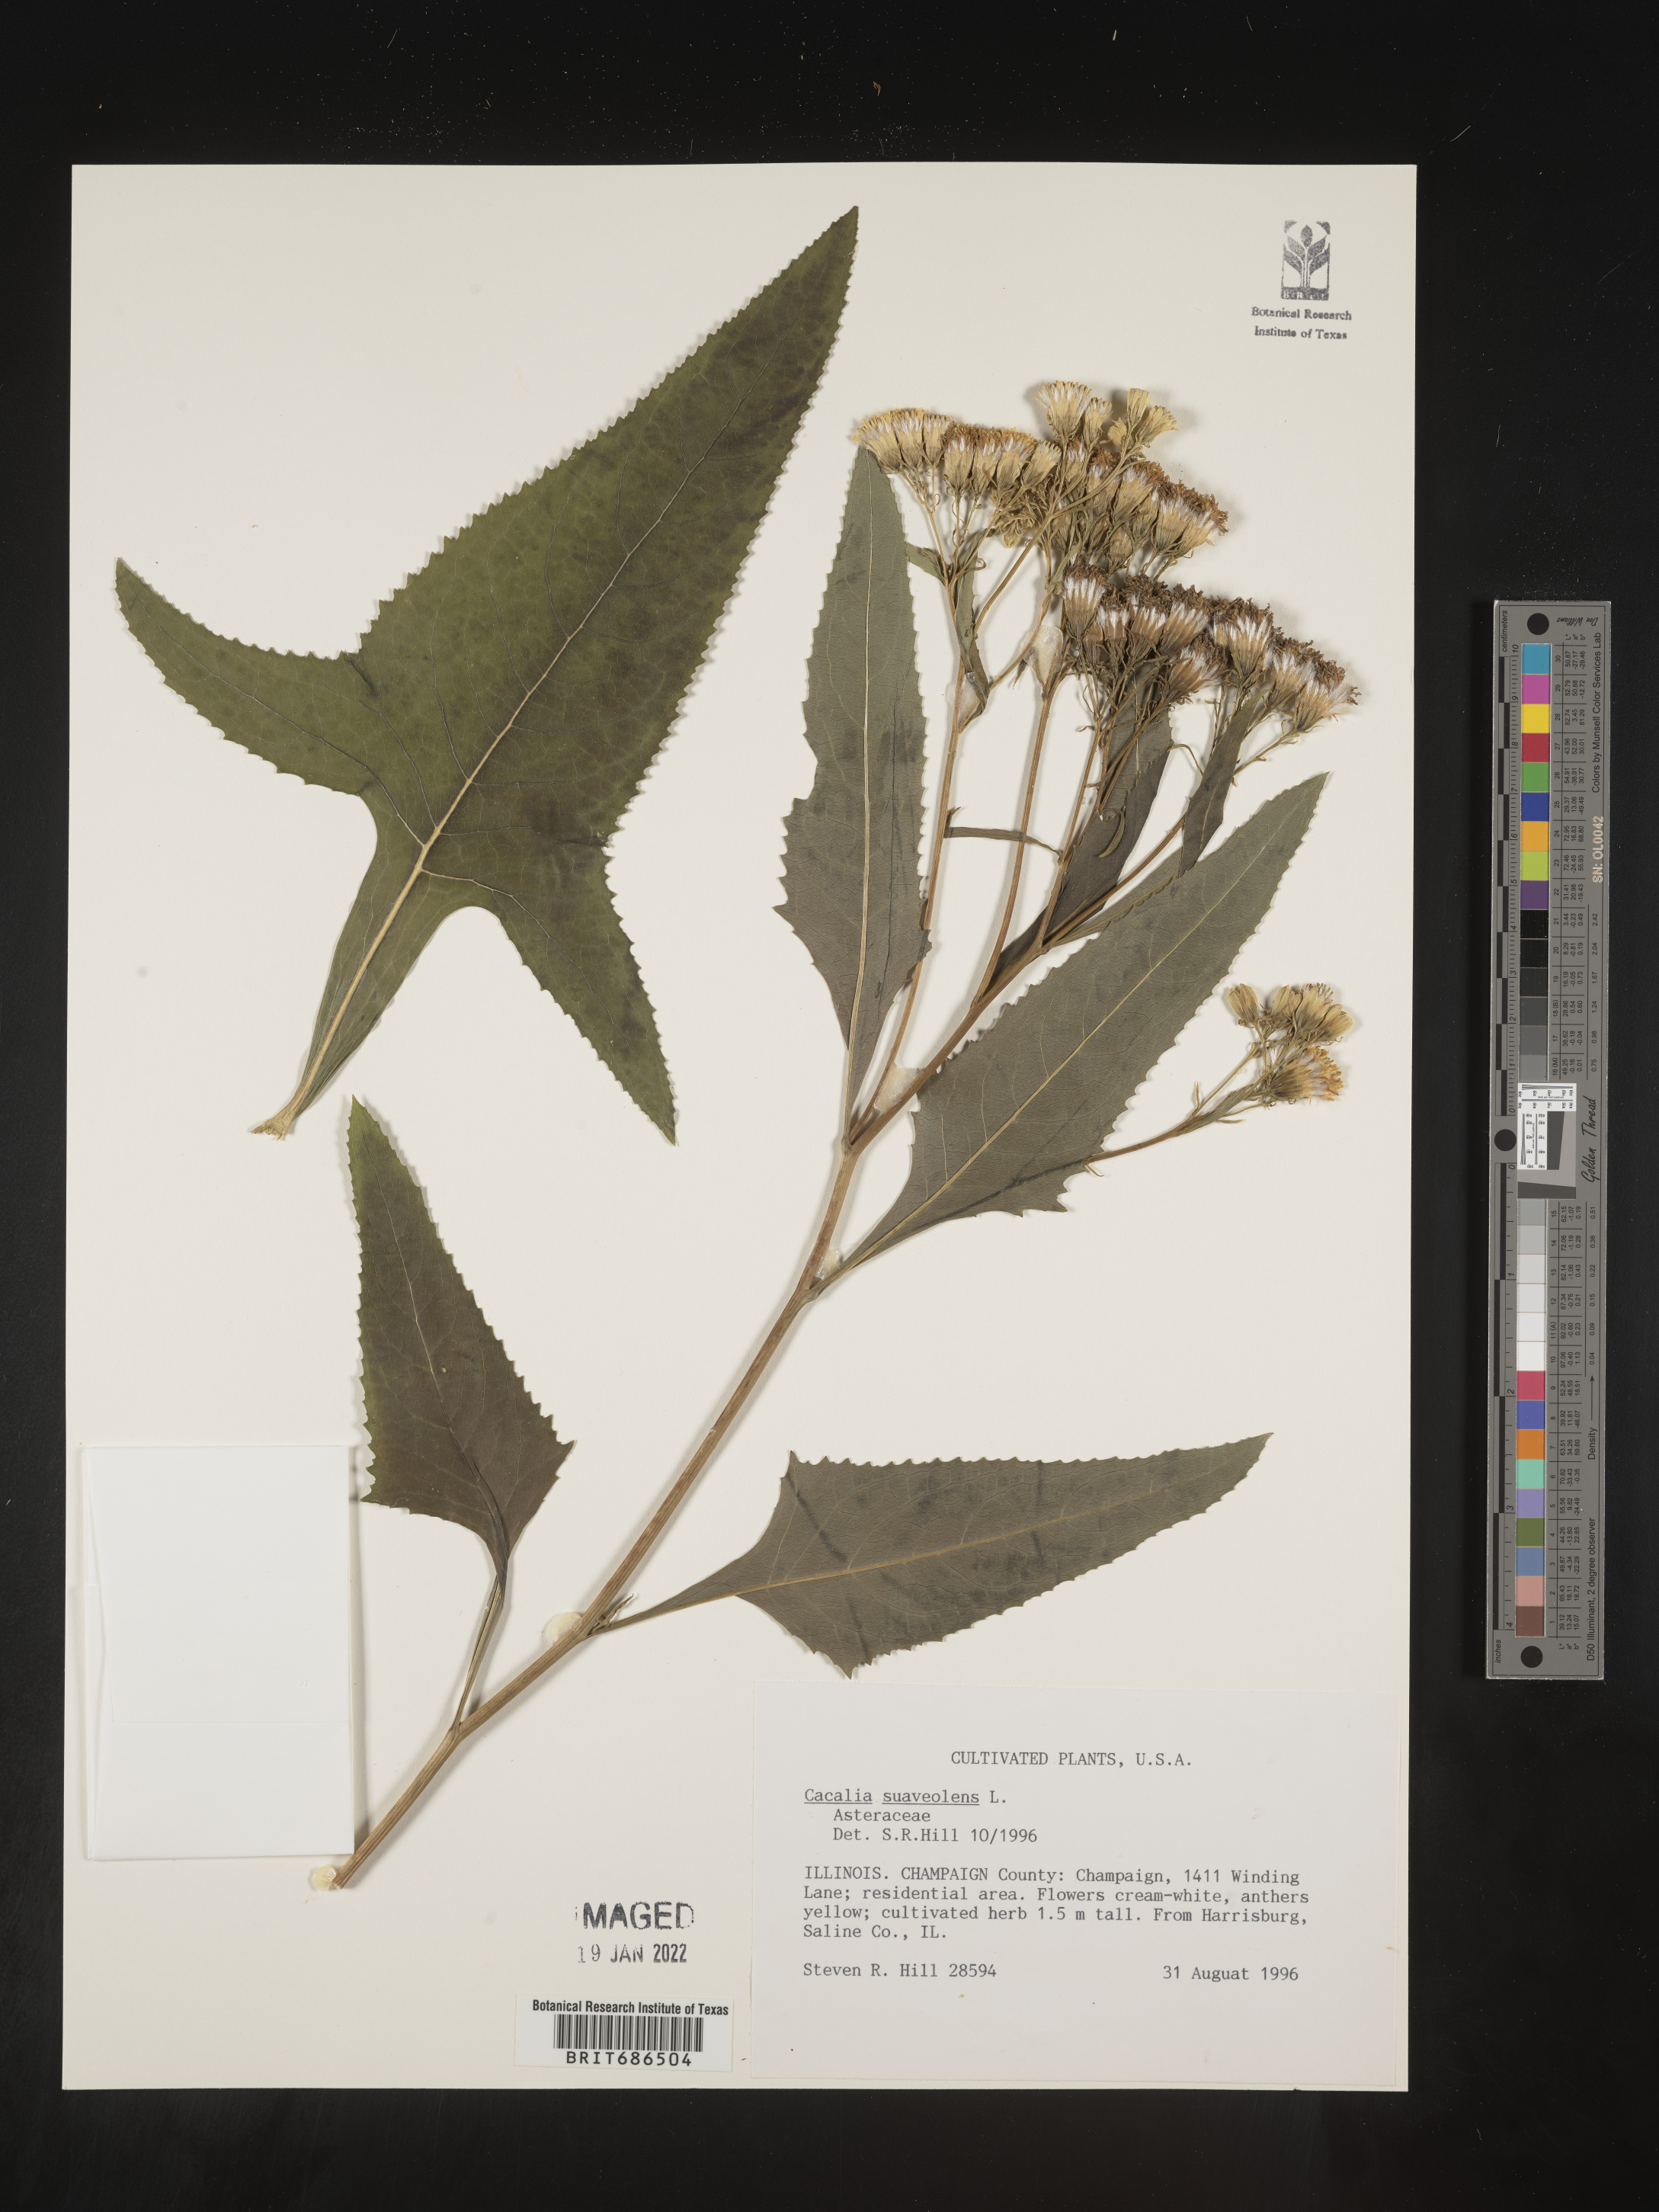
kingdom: Plantae
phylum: Tracheophyta
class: Magnoliopsida
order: Asterales
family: Asteraceae
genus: Cacalia
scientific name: Cacalia
